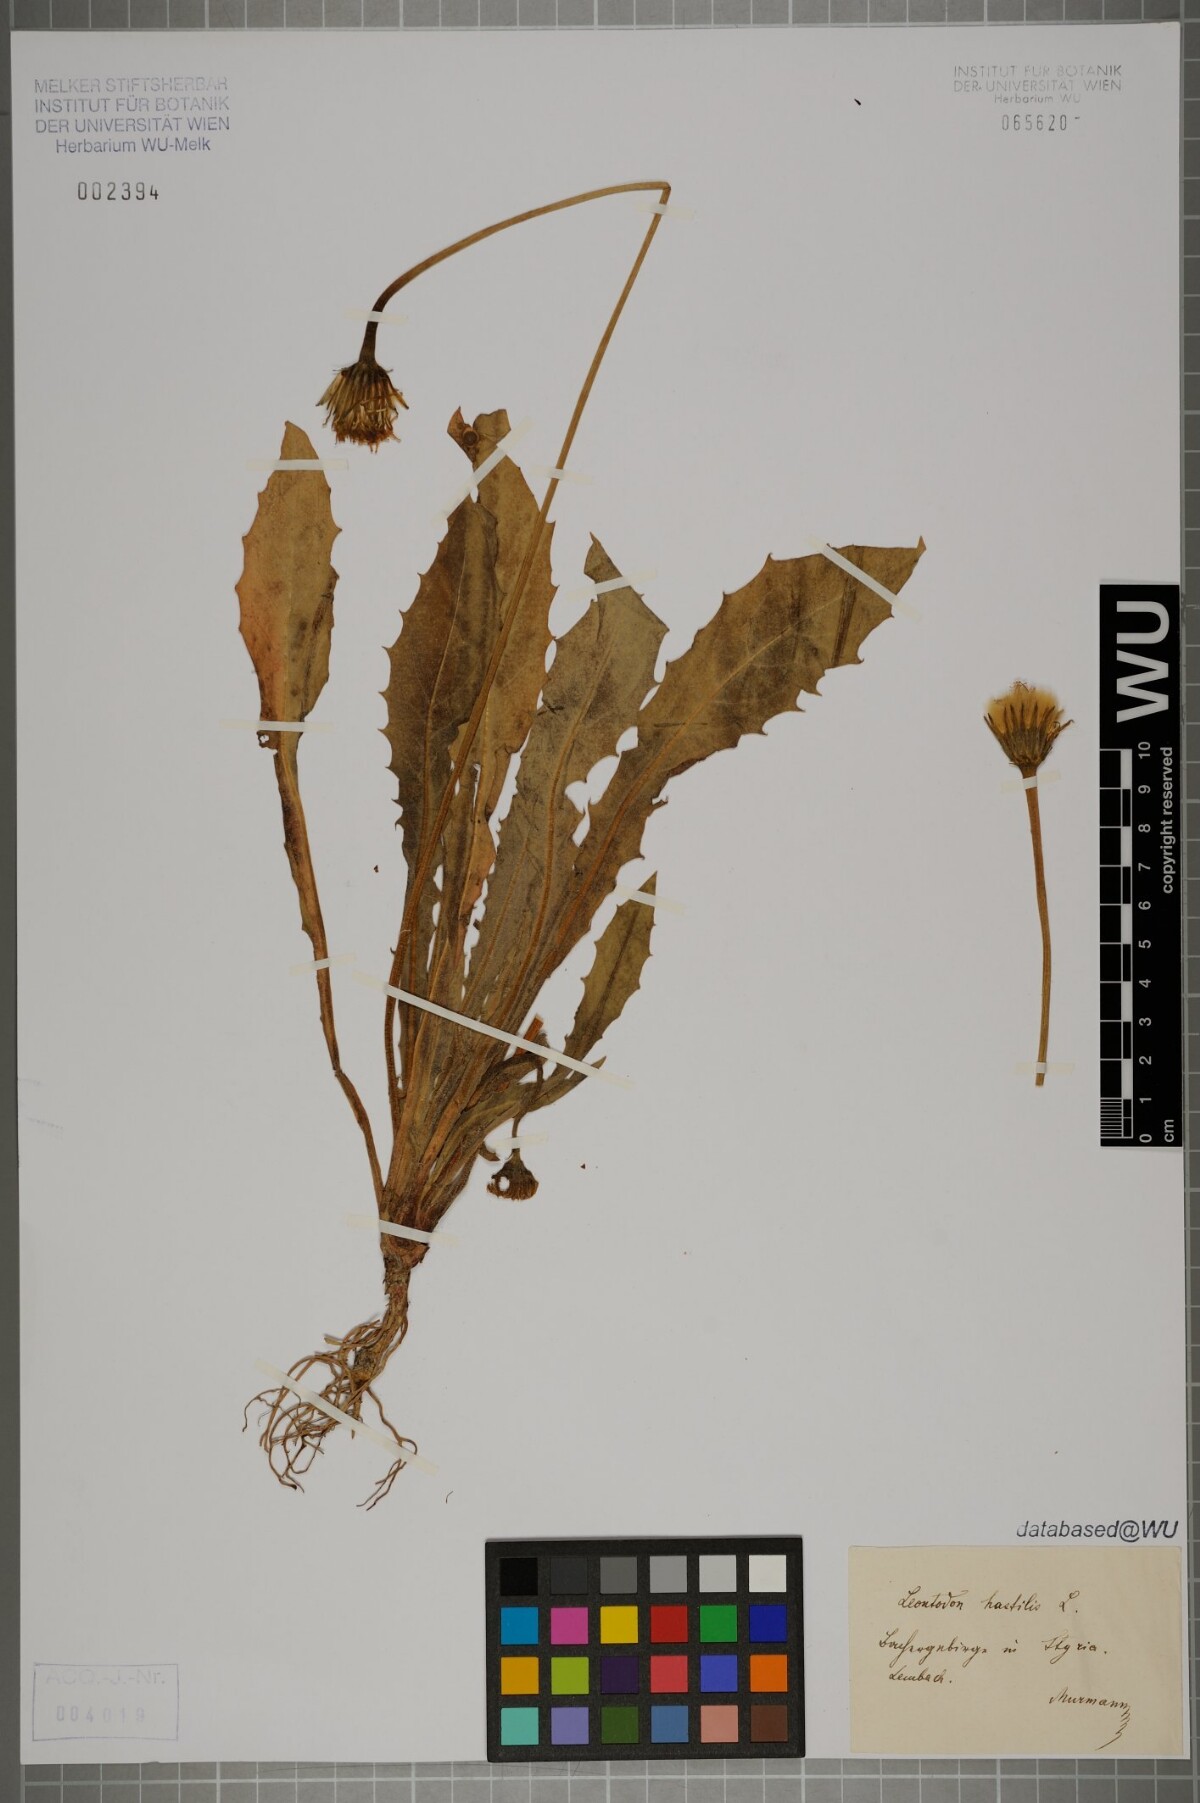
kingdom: Plantae
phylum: Tracheophyta
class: Magnoliopsida
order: Asterales
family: Asteraceae
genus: Leontodon
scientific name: Leontodon hispidus
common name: Rough hawkbit
